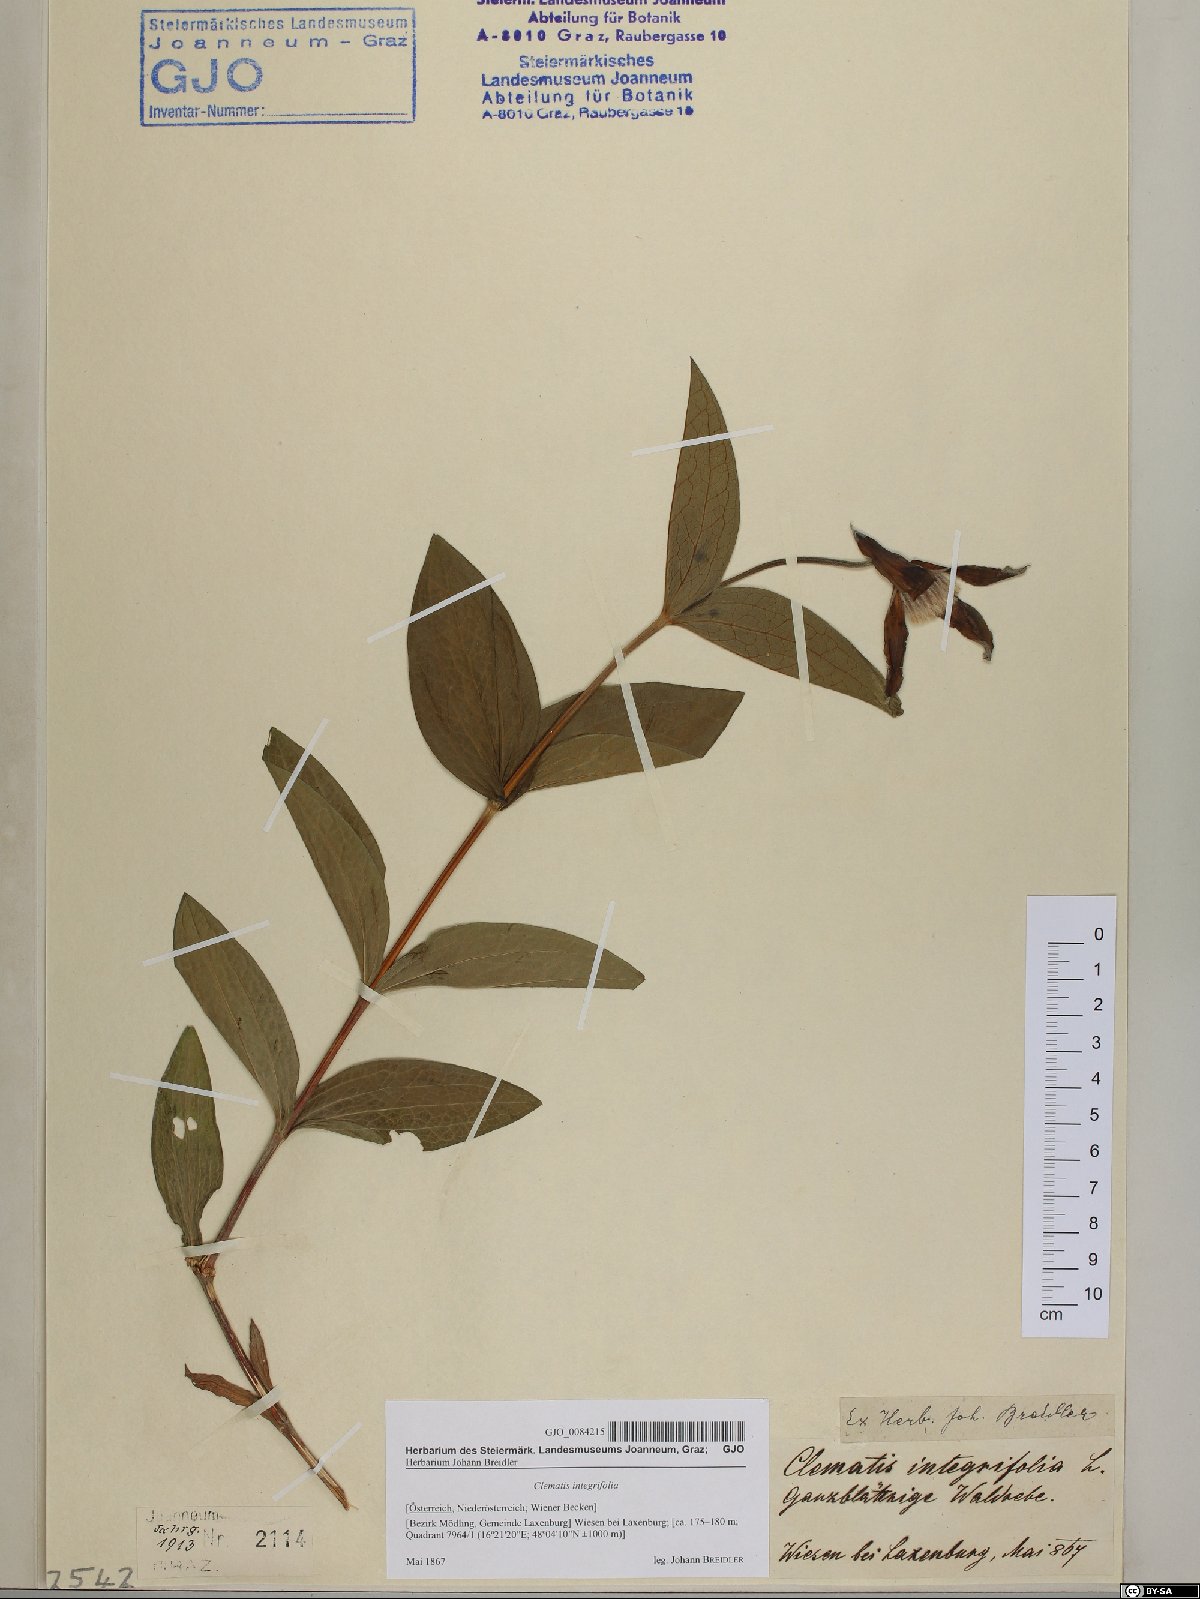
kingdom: Plantae
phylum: Tracheophyta
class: Magnoliopsida
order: Ranunculales
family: Ranunculaceae
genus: Clematis
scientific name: Clematis integrifolia
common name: Solitary clematis
